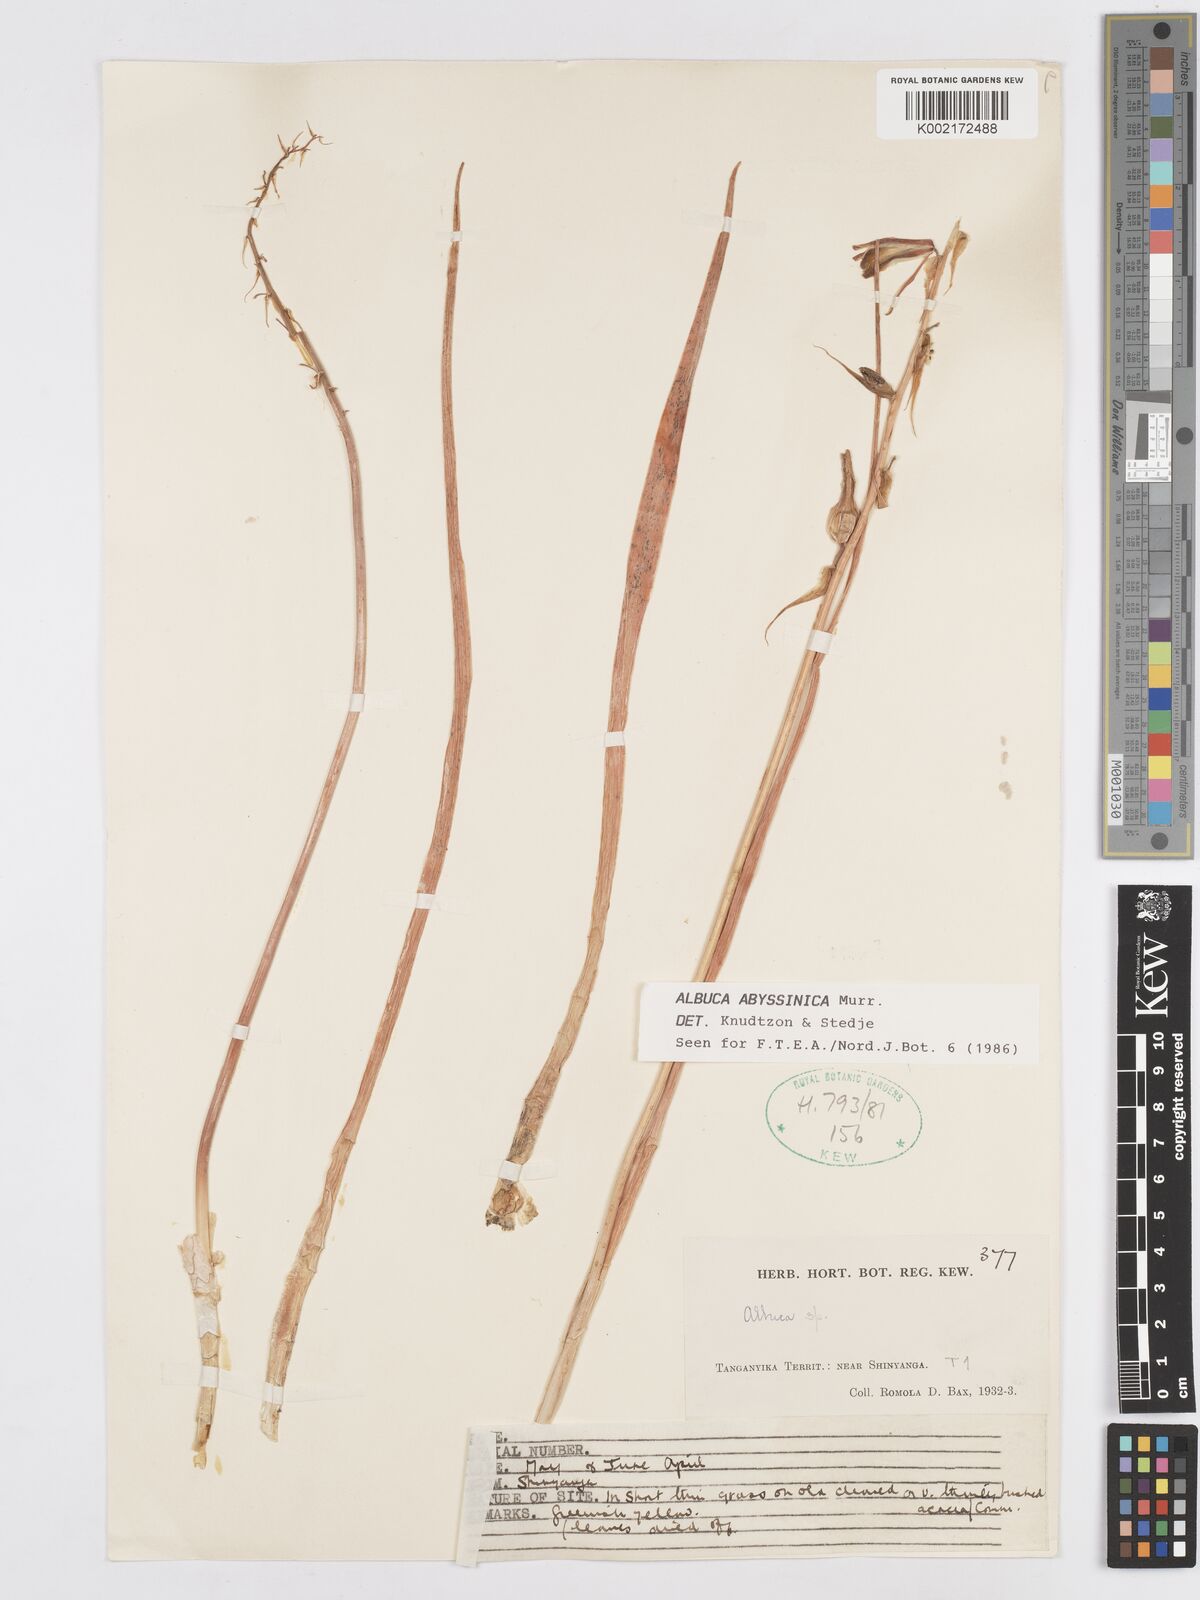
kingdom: Plantae
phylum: Tracheophyta
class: Liliopsida
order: Asparagales
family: Asparagaceae
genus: Albuca
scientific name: Albuca abyssinica
